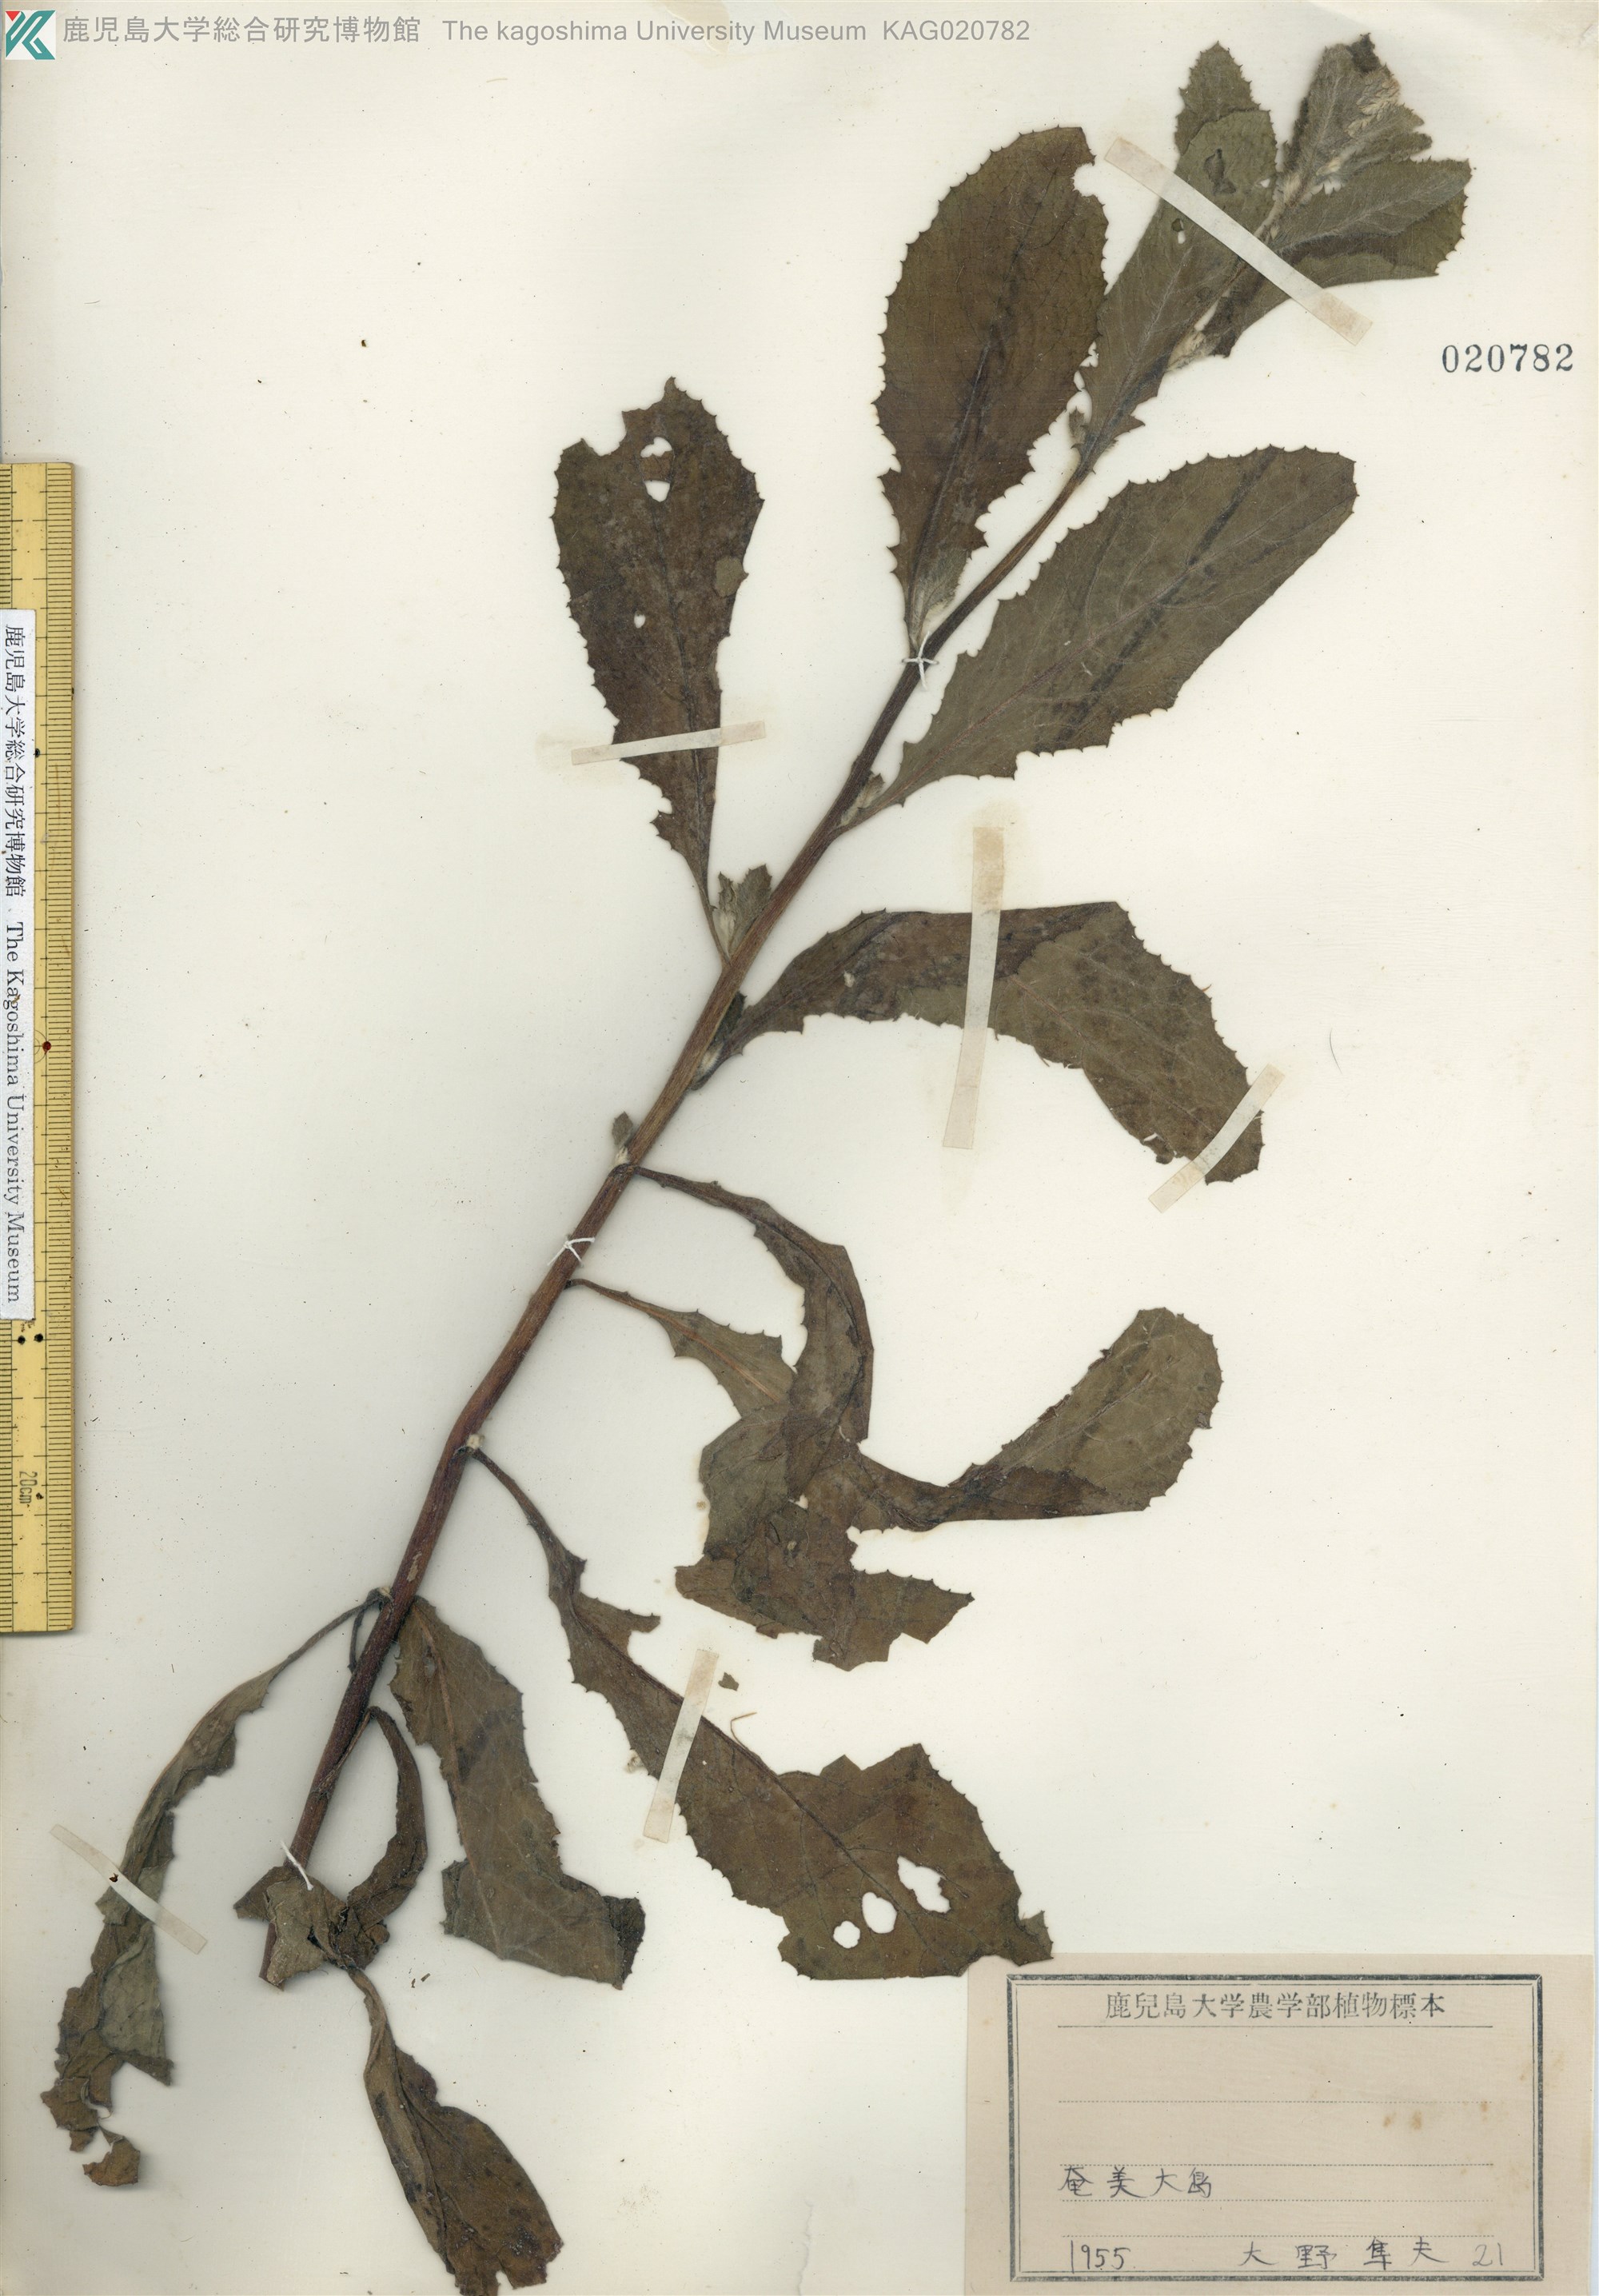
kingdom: Plantae
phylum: Tracheophyta
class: Magnoliopsida
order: Asterales
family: Asteraceae
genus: Blumea
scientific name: Blumea lacera
